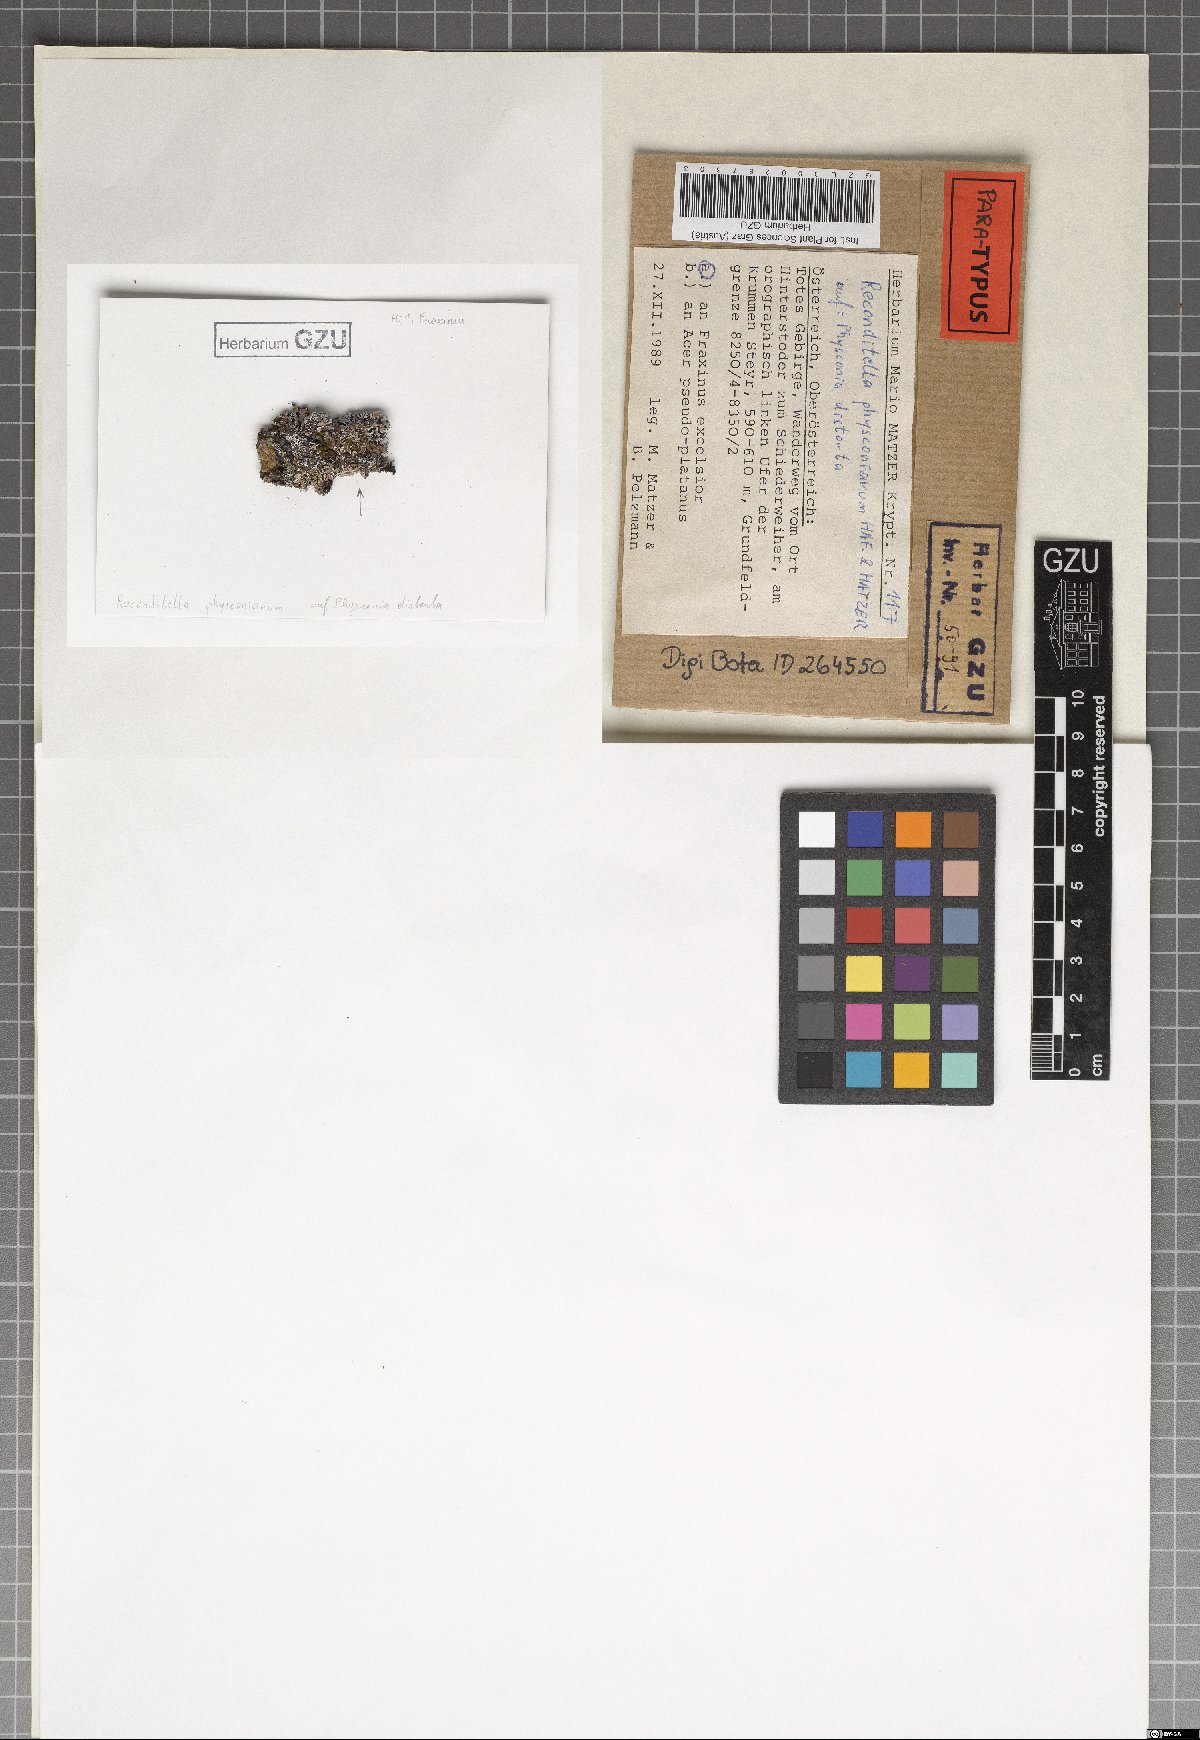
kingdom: Fungi
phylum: Ascomycota
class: Sordariomycetes
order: Sordariales
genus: Reconditella
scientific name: Reconditella physconiarum
